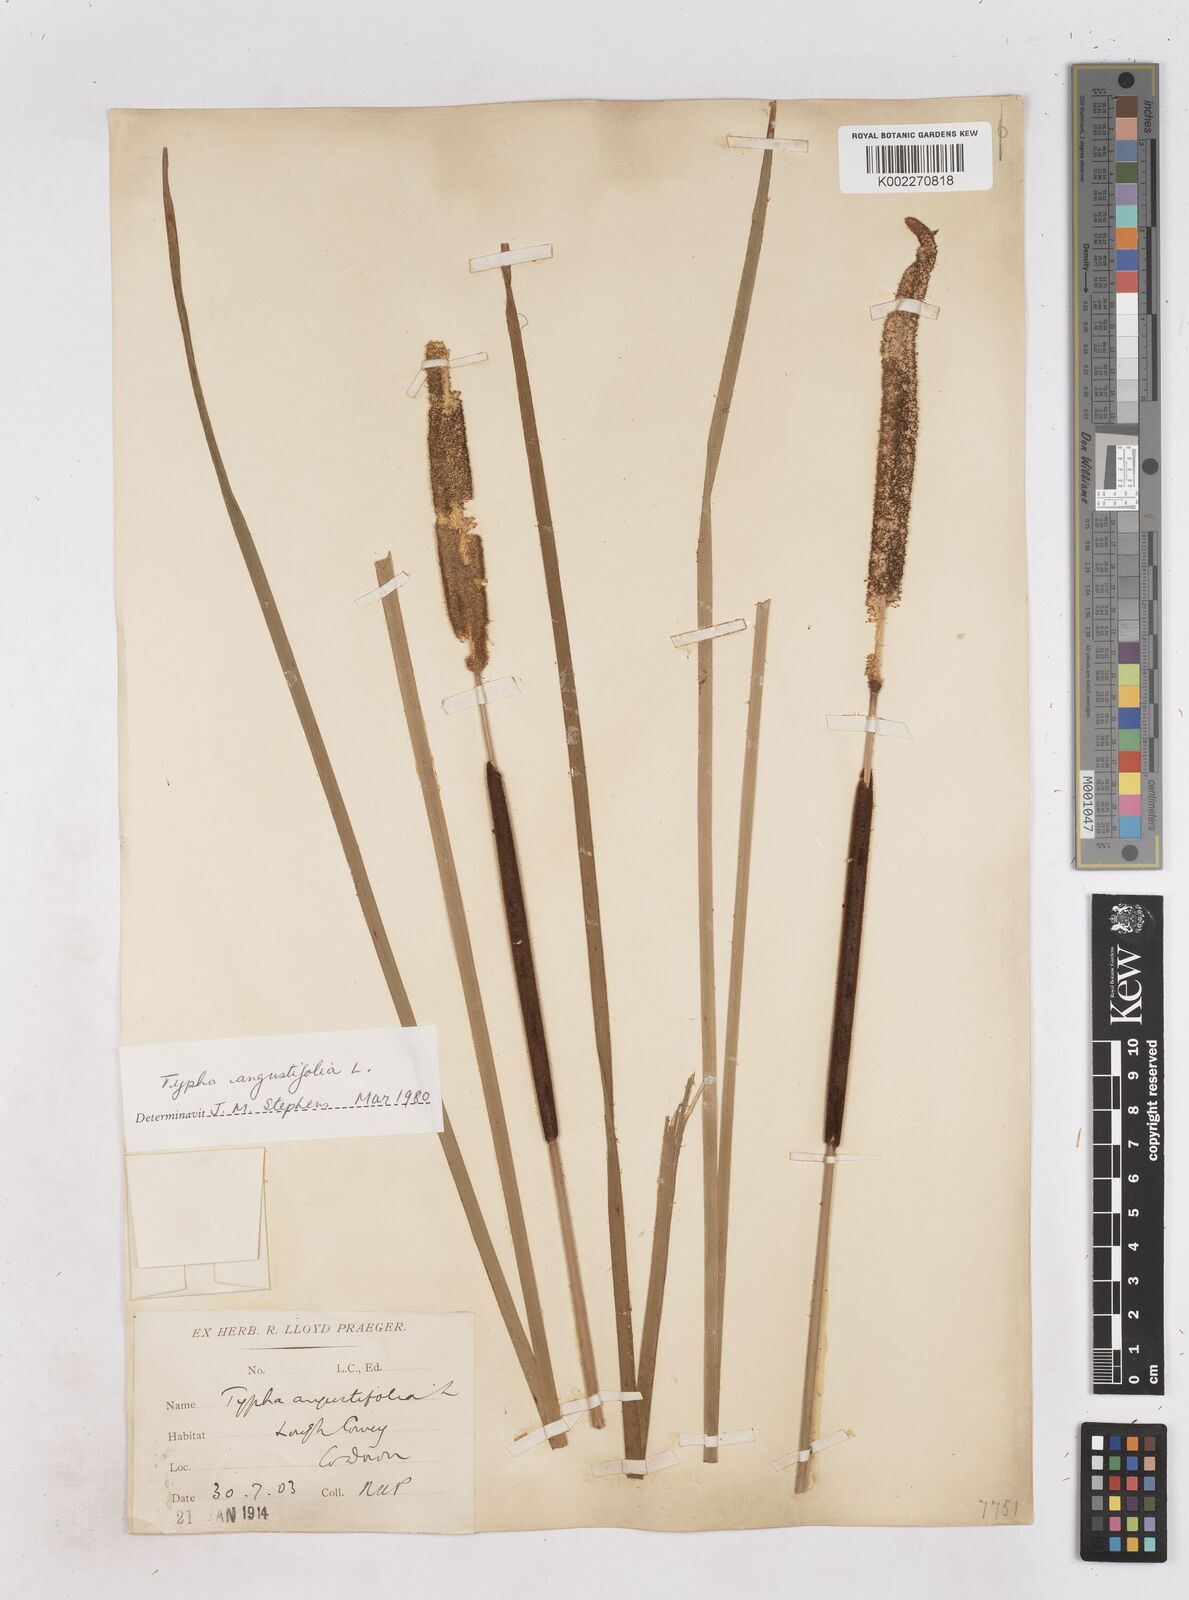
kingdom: Plantae
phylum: Tracheophyta
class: Liliopsida
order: Poales
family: Typhaceae
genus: Typha
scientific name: Typha angustifolia
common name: Lesser bulrush
